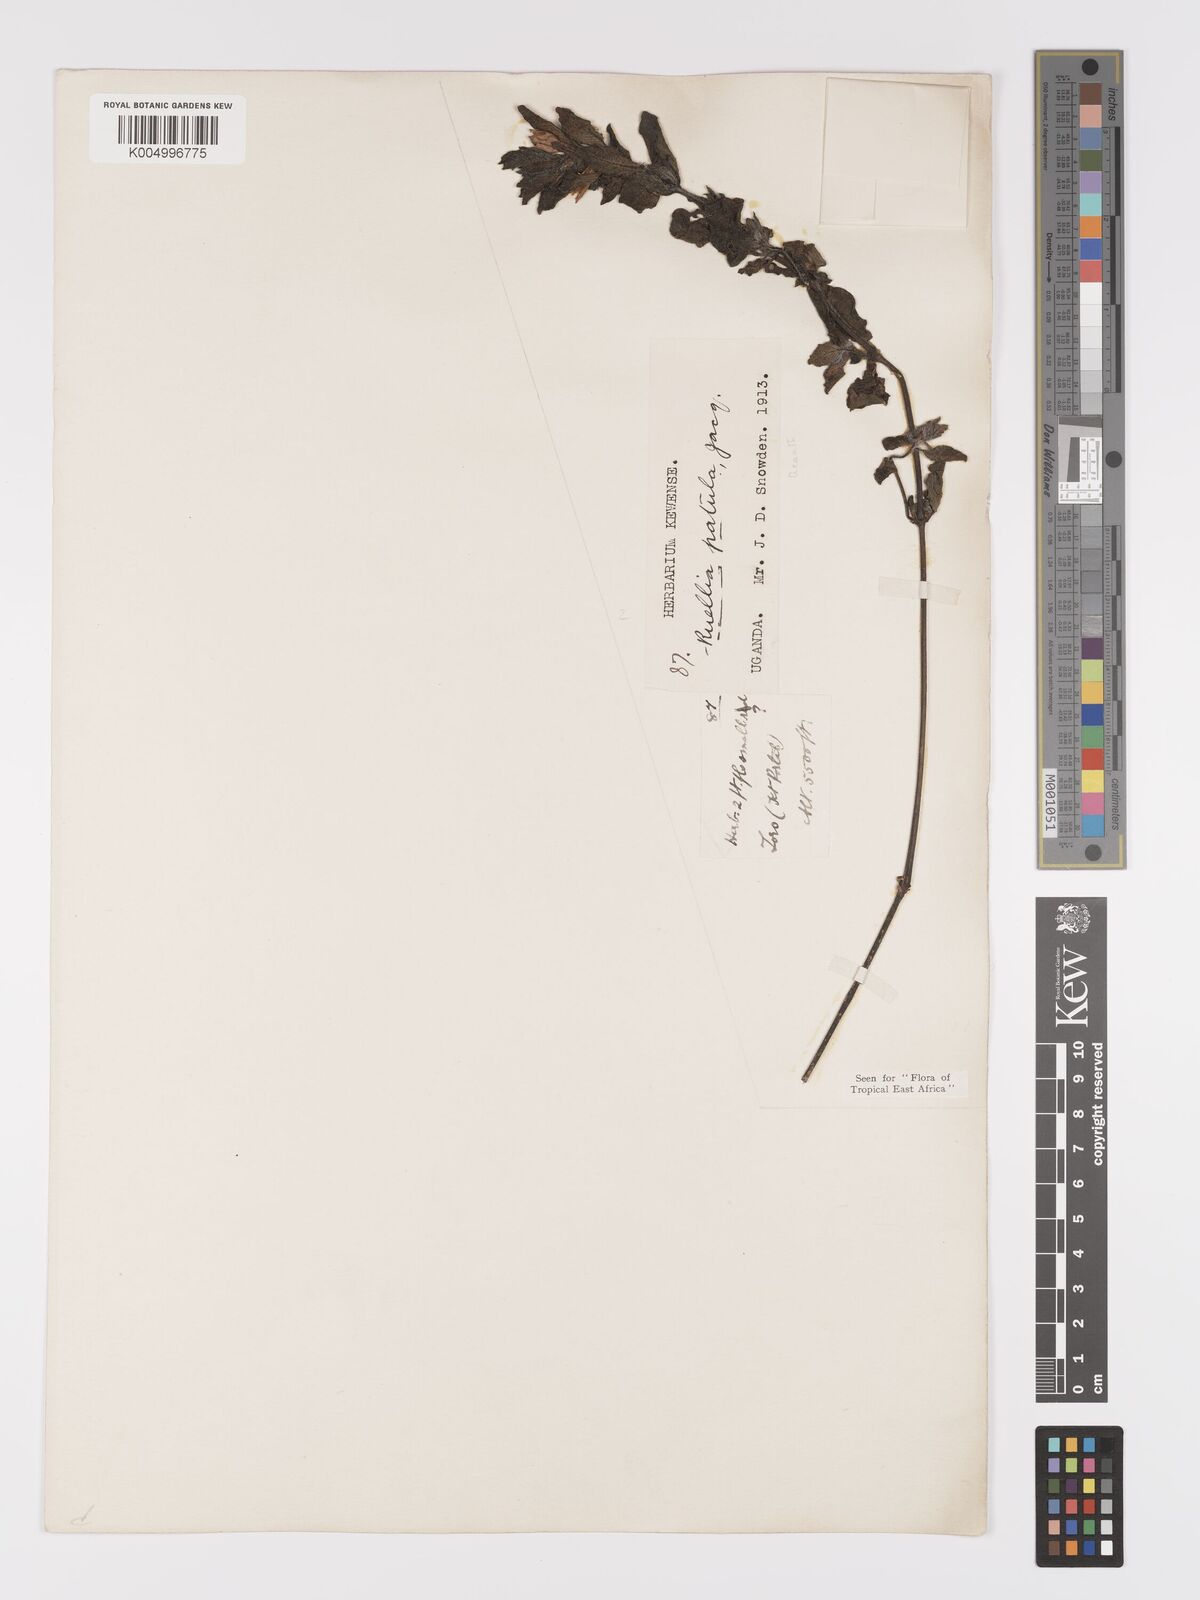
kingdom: Plantae
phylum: Tracheophyta
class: Magnoliopsida
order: Lamiales
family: Acanthaceae
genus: Ruellia
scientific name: Ruellia patula
